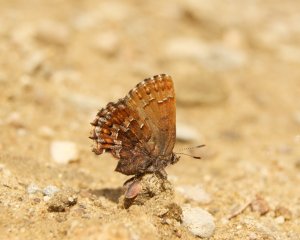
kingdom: Animalia
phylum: Arthropoda
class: Insecta
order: Lepidoptera
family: Lycaenidae
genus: Incisalia
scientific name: Incisalia niphon
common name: Eastern Pine Elfin
